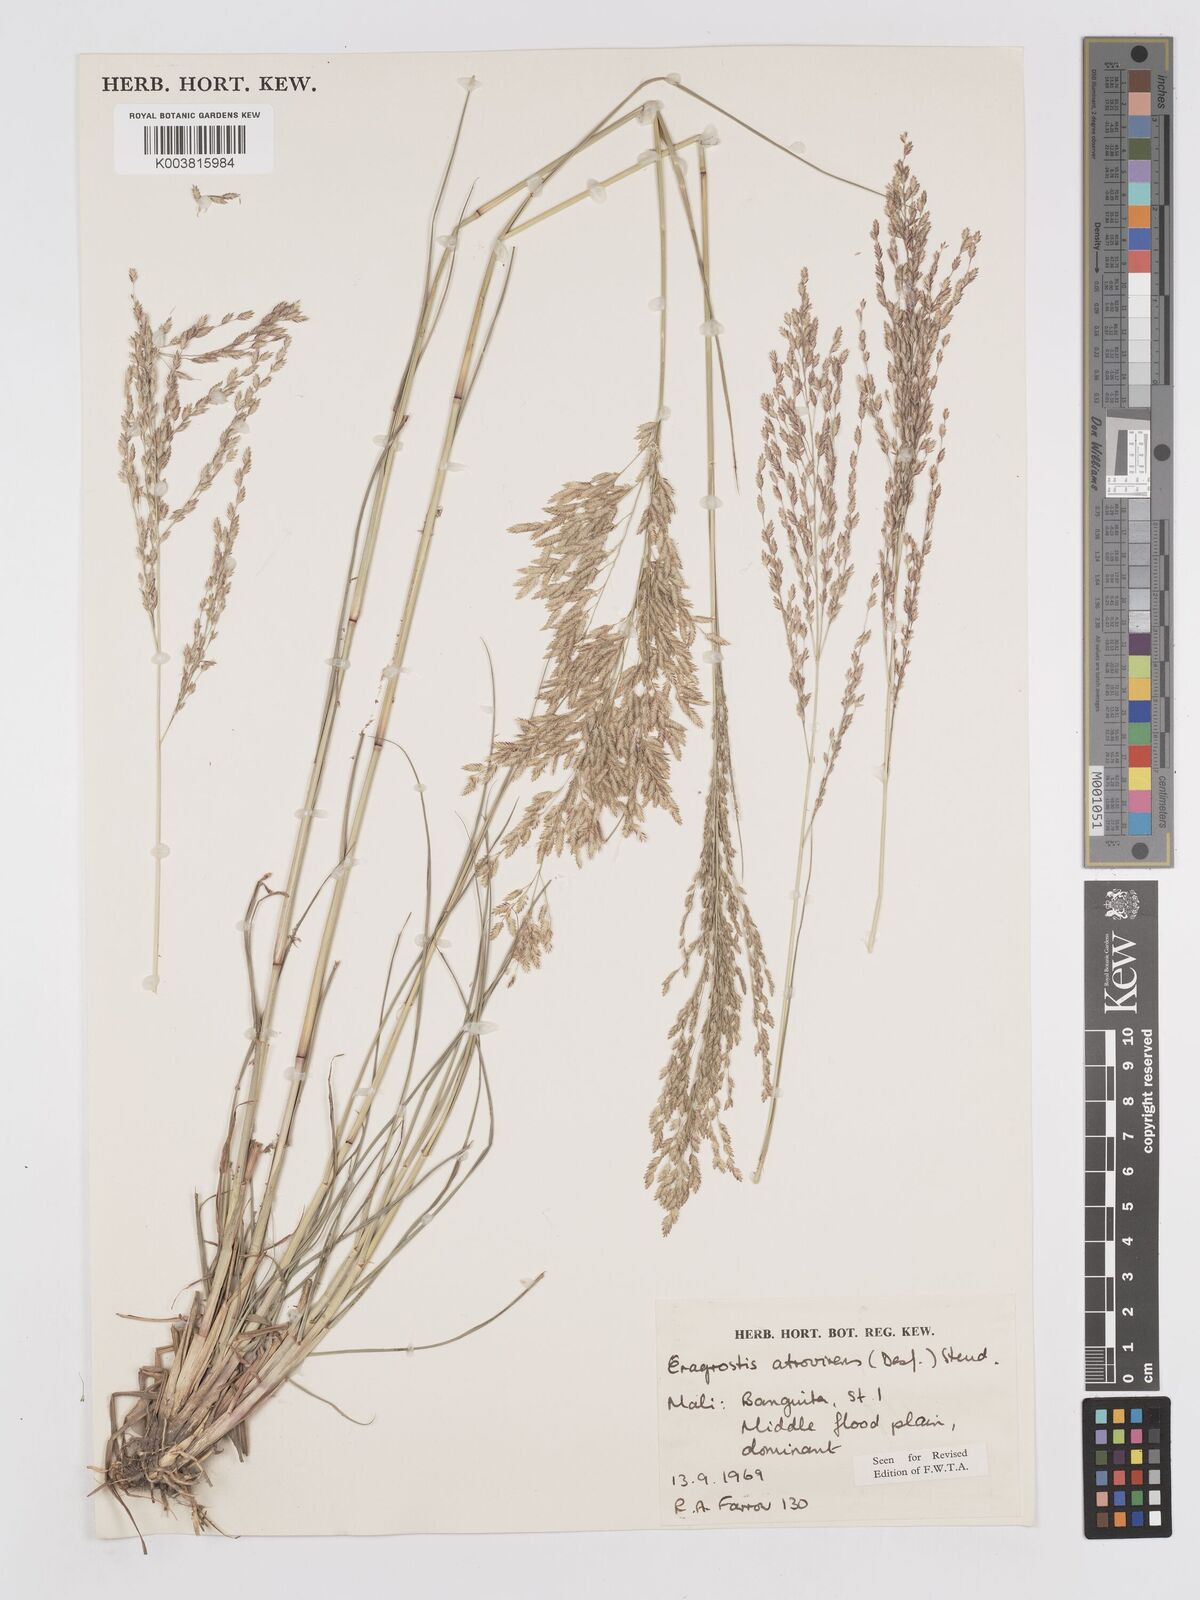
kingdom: Plantae
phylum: Tracheophyta
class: Liliopsida
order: Poales
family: Poaceae
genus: Eragrostis
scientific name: Eragrostis atrovirens
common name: Thalia lovegrass
